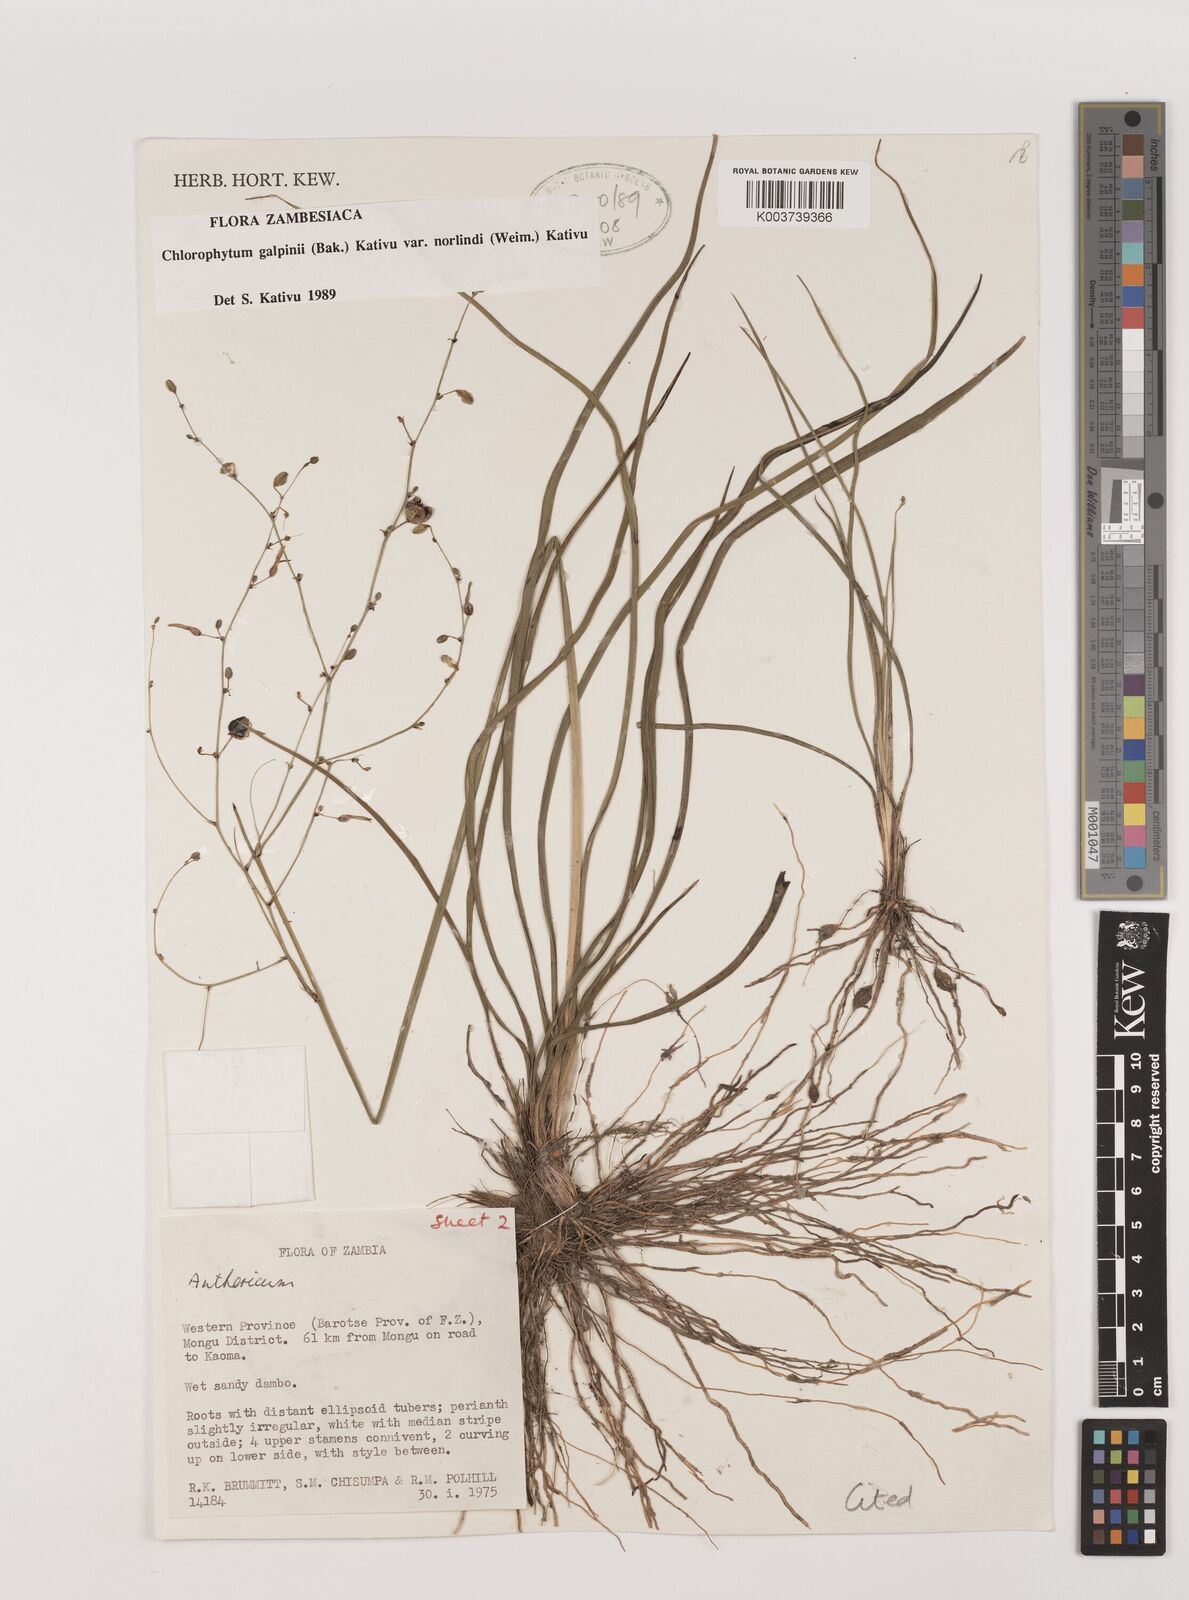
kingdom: Plantae
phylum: Tracheophyta
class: Liliopsida
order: Asparagales
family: Asparagaceae
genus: Chlorophytum
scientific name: Chlorophytum galpinii
